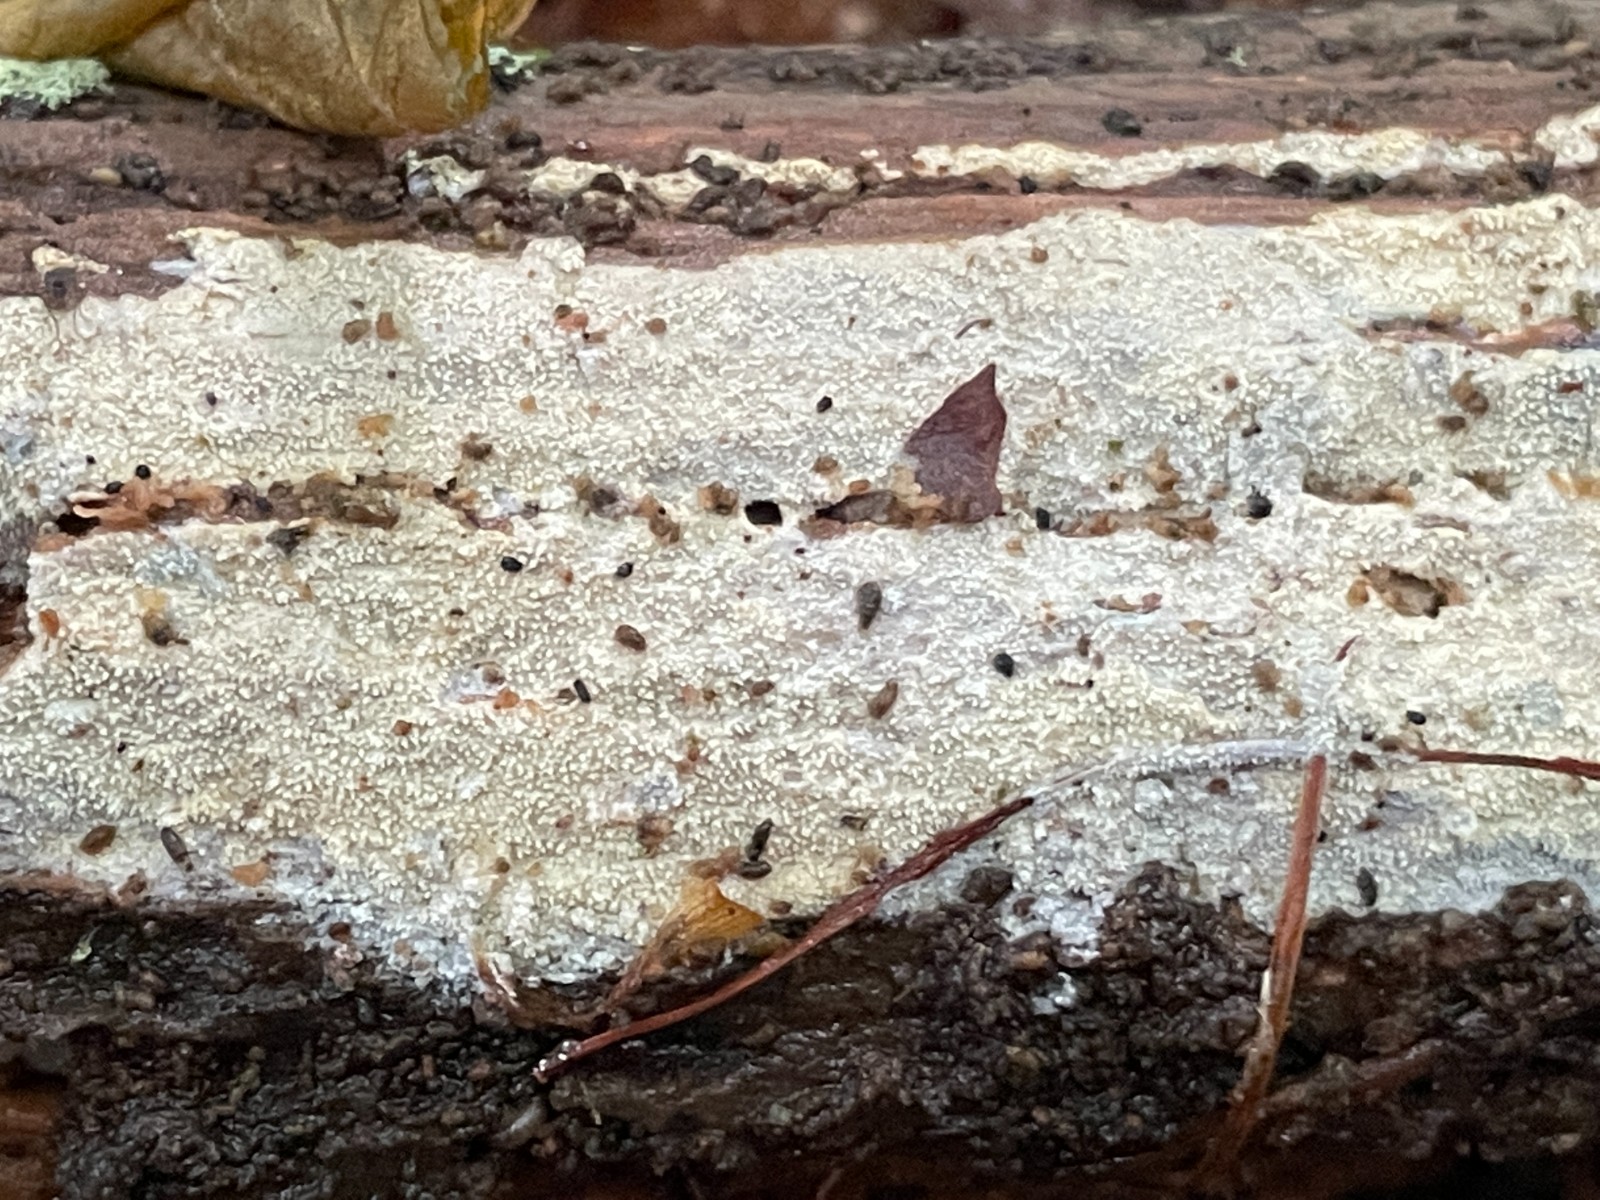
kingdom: Fungi
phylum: Basidiomycota
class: Agaricomycetes
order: Corticiales
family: Corticiaceae
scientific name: Corticiaceae
